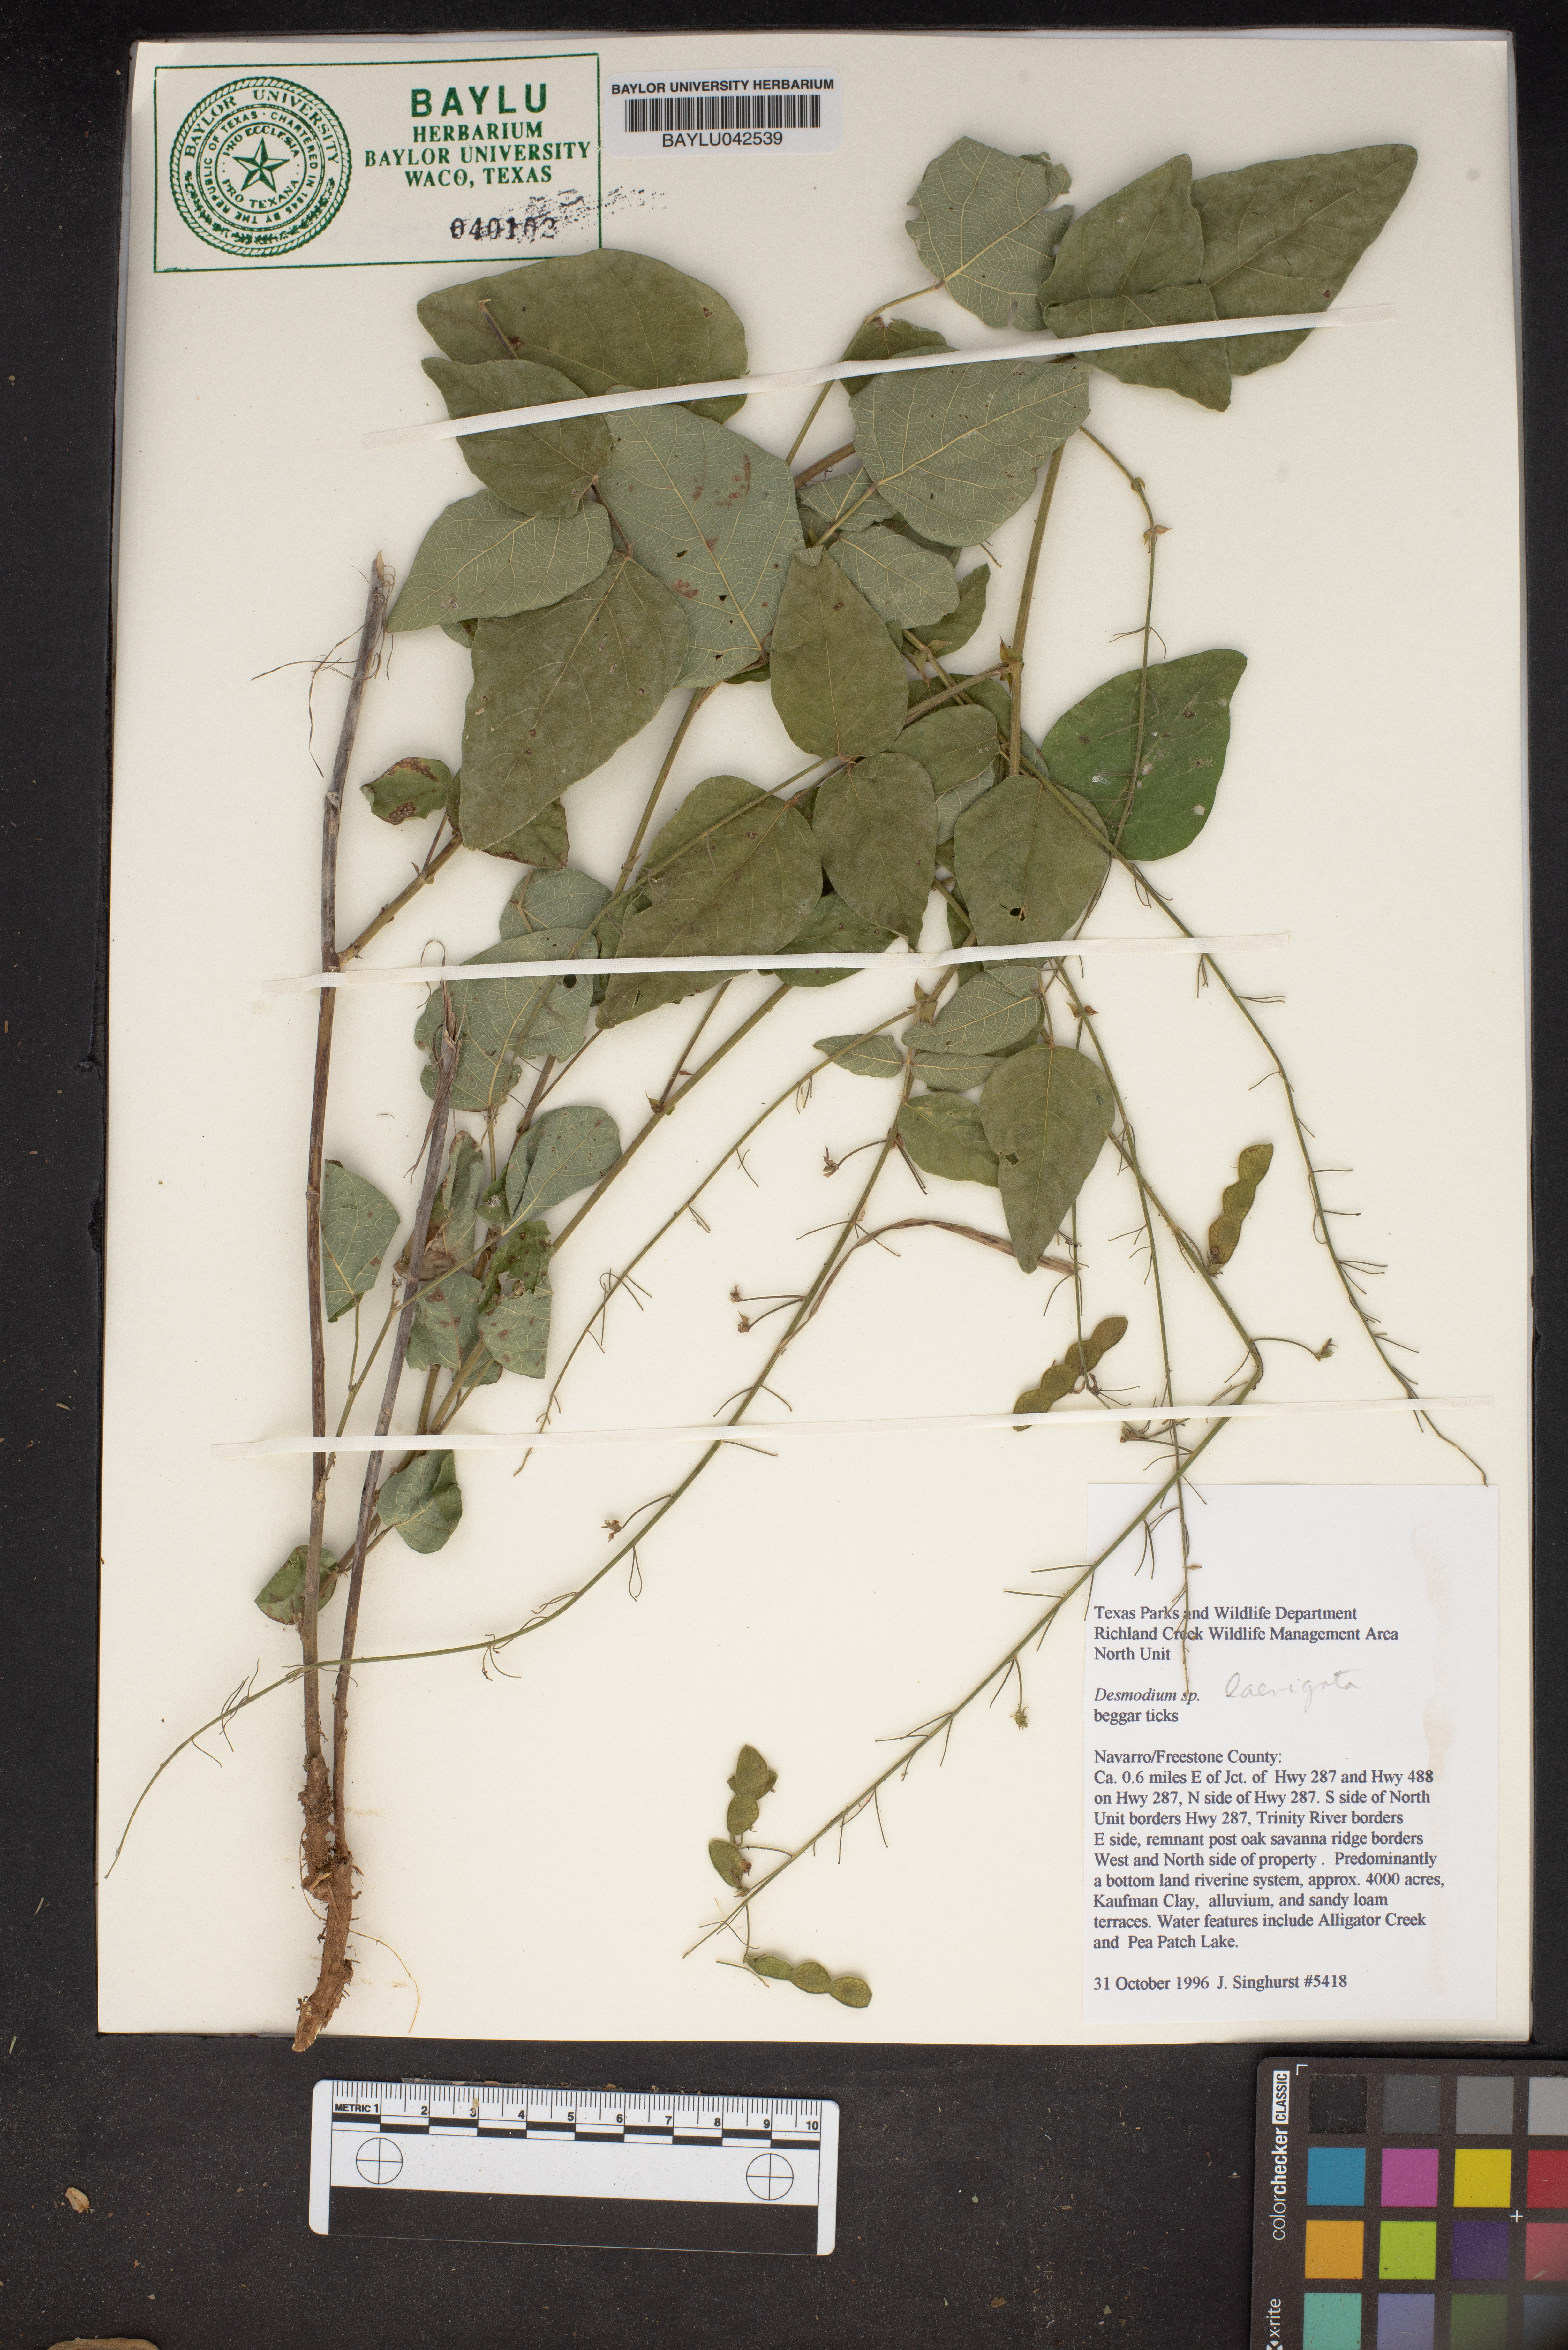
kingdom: Plantae
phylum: Tracheophyta
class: Magnoliopsida
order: Fabales
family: Fabaceae
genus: Desmodium
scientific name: Desmodium
